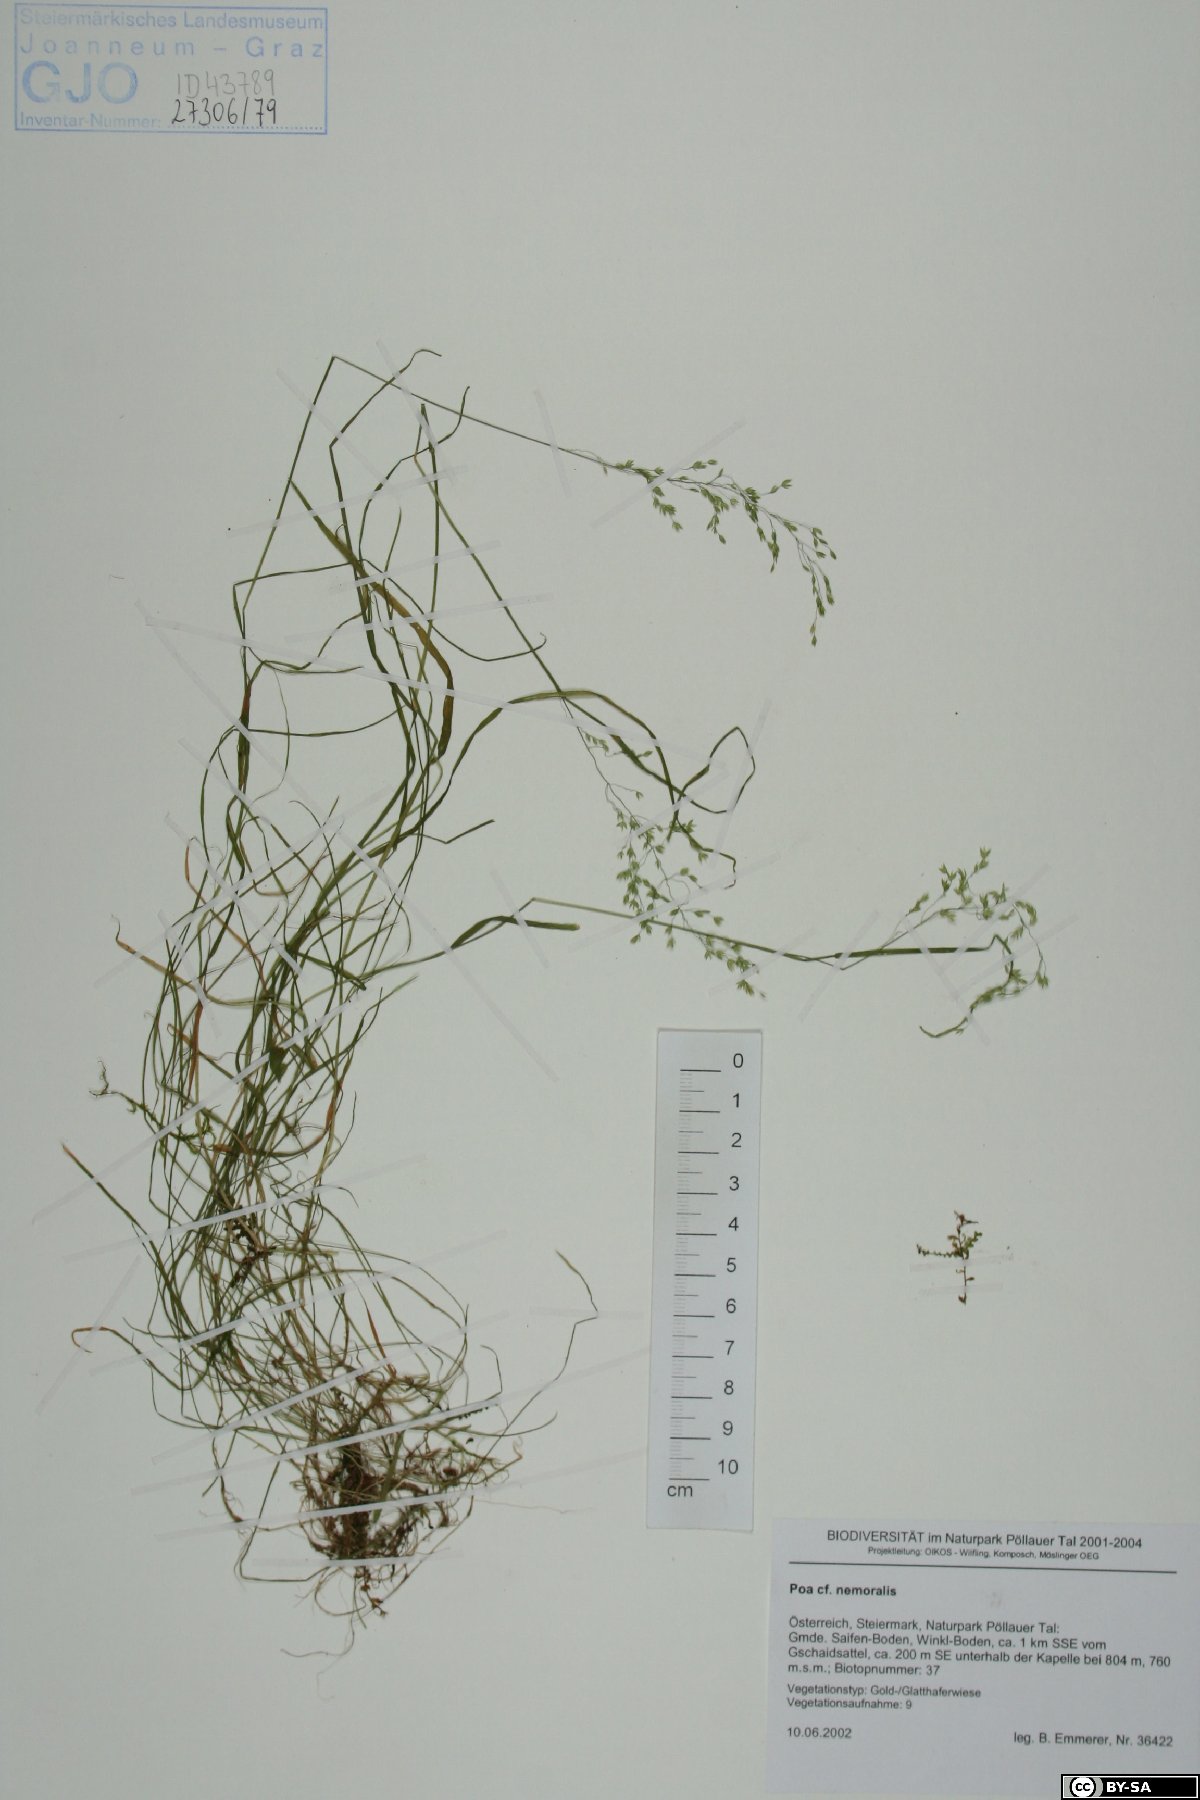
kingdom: Plantae
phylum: Tracheophyta
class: Liliopsida
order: Poales
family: Poaceae
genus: Poa
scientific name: Poa nemoralis
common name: Wood bluegrass
